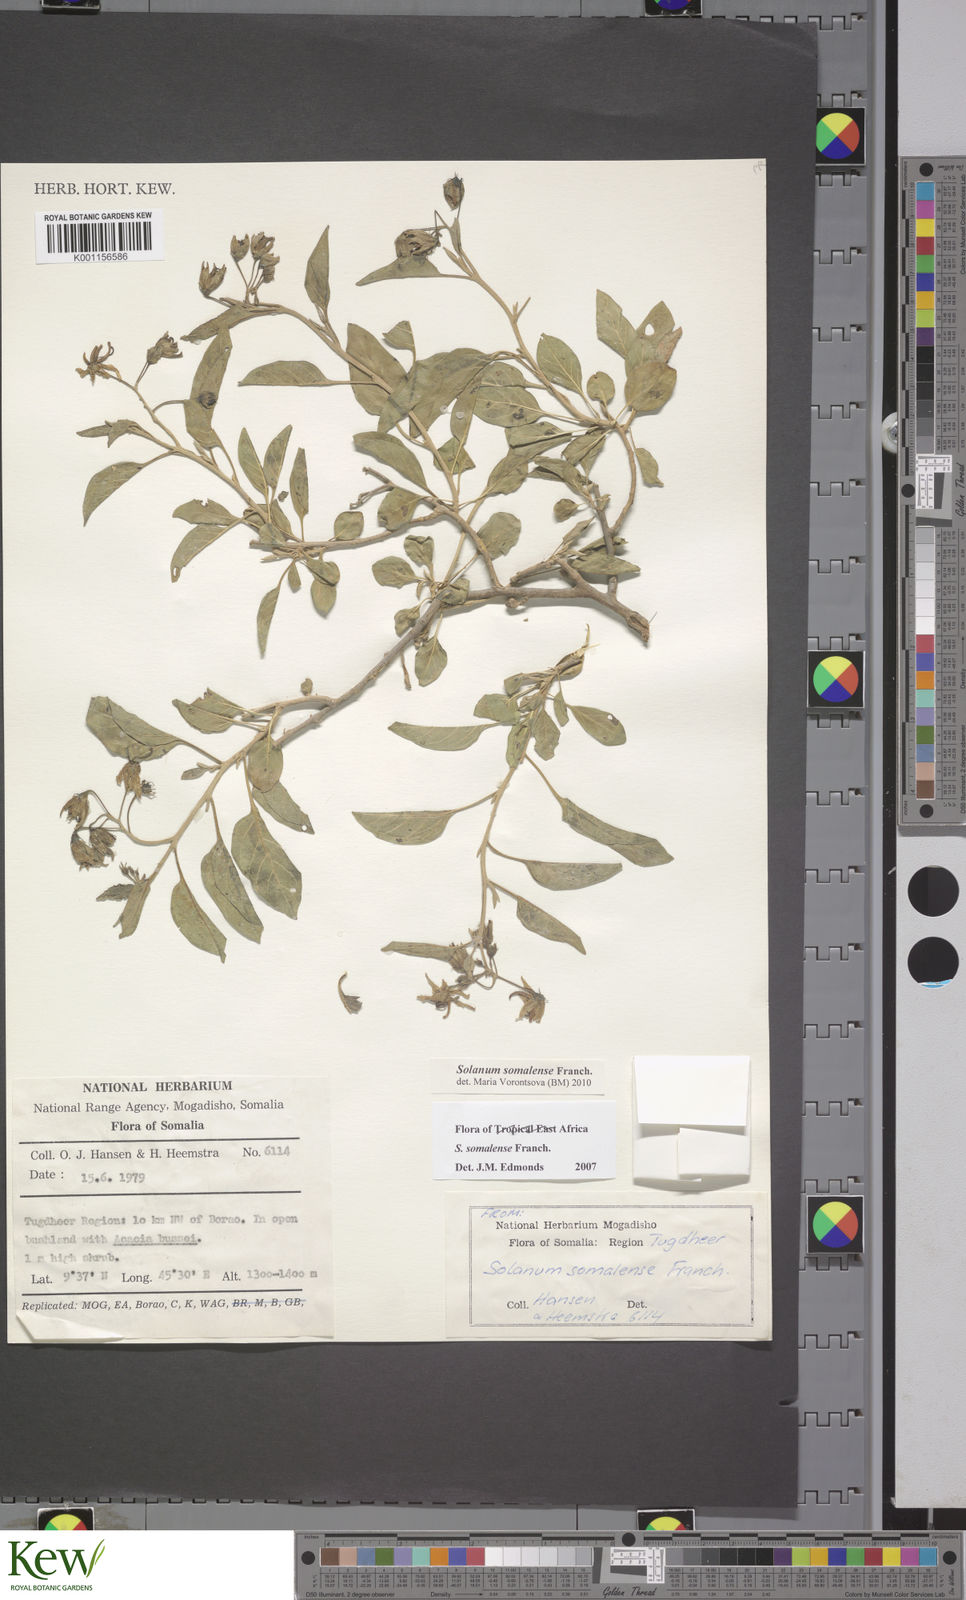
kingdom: Plantae
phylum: Tracheophyta
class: Magnoliopsida
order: Solanales
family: Solanaceae
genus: Solanum
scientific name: Solanum somalense
